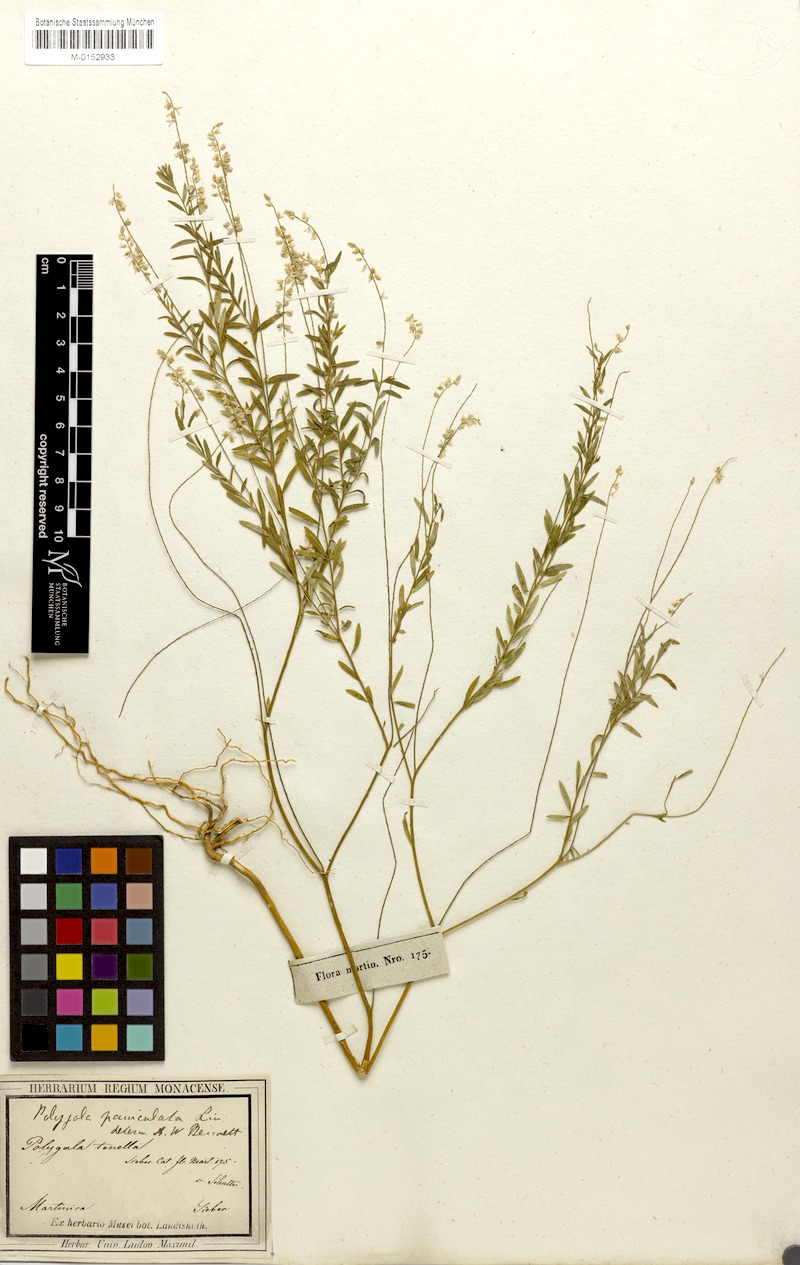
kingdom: Plantae
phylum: Tracheophyta
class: Magnoliopsida
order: Fabales
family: Polygalaceae
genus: Polygala
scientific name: Polygala tenella
